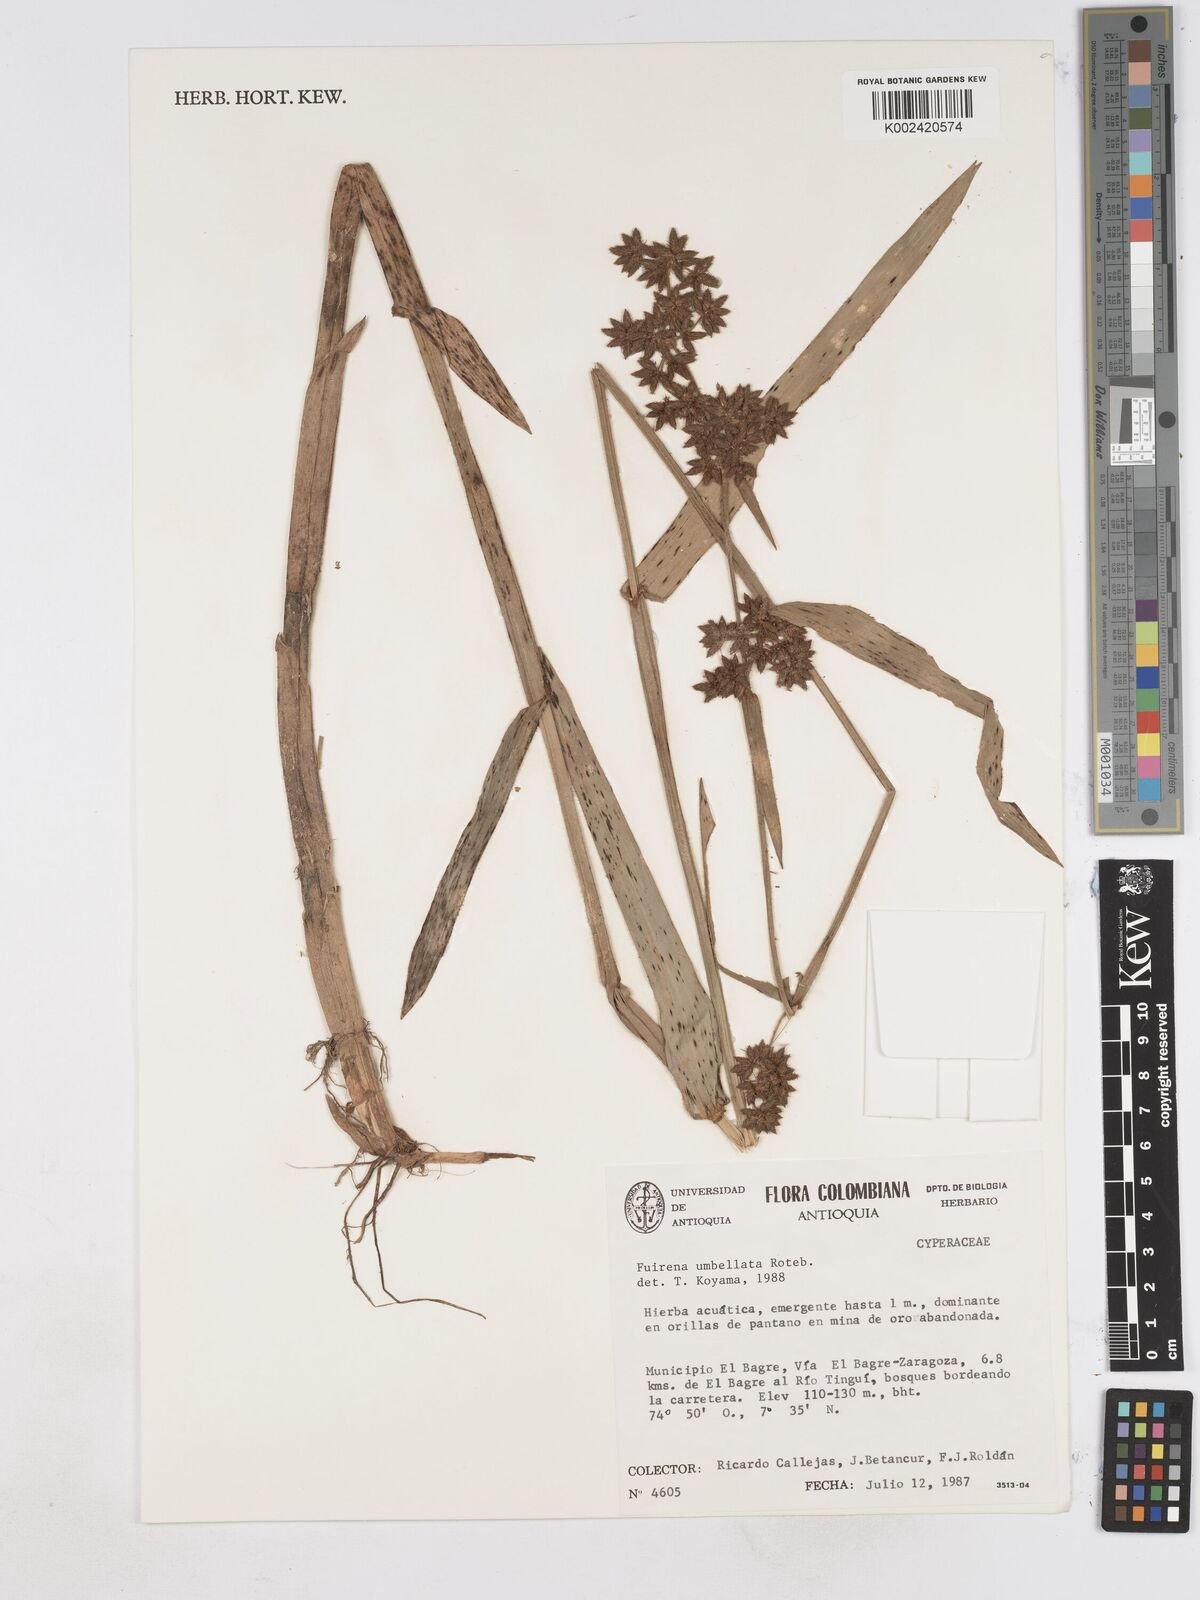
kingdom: Plantae
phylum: Tracheophyta
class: Liliopsida
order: Poales
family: Cyperaceae
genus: Fuirena
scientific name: Fuirena umbellata
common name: Yefen
